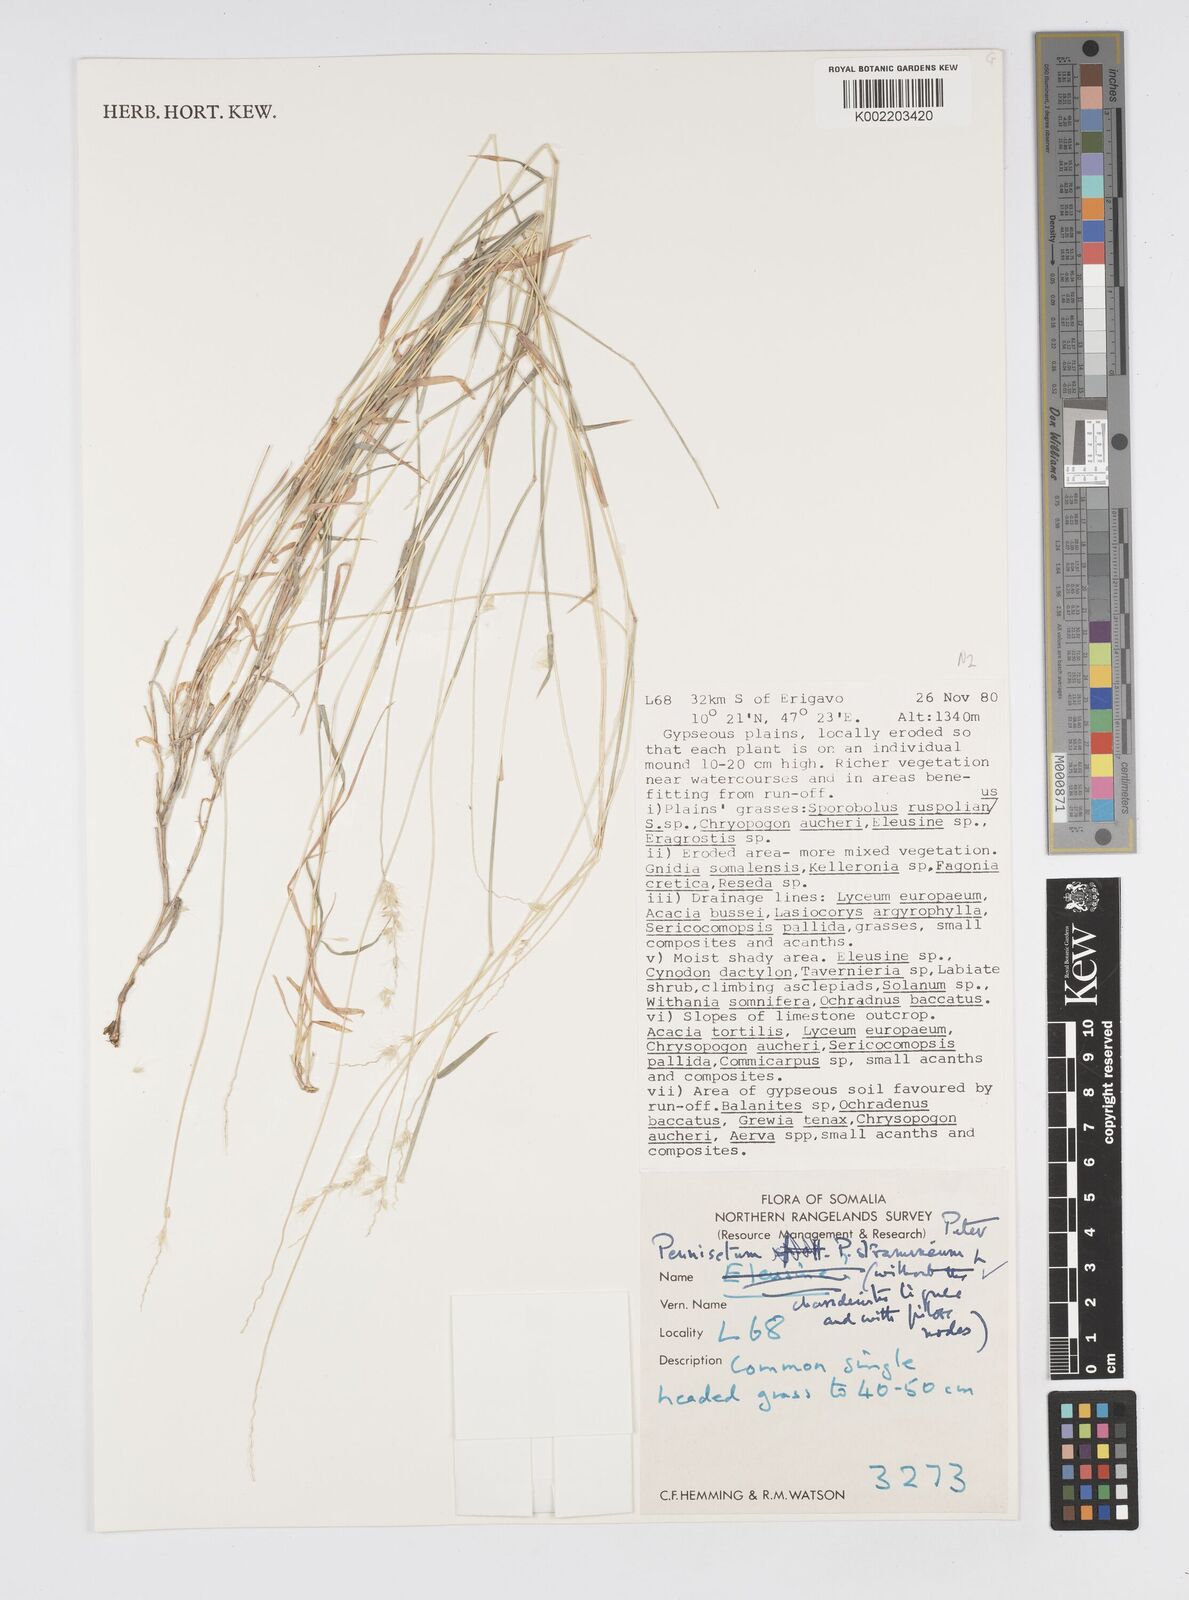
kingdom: Plantae
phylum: Tracheophyta
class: Liliopsida
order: Poales
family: Poaceae
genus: Cenchrus
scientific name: Cenchrus stramineus
